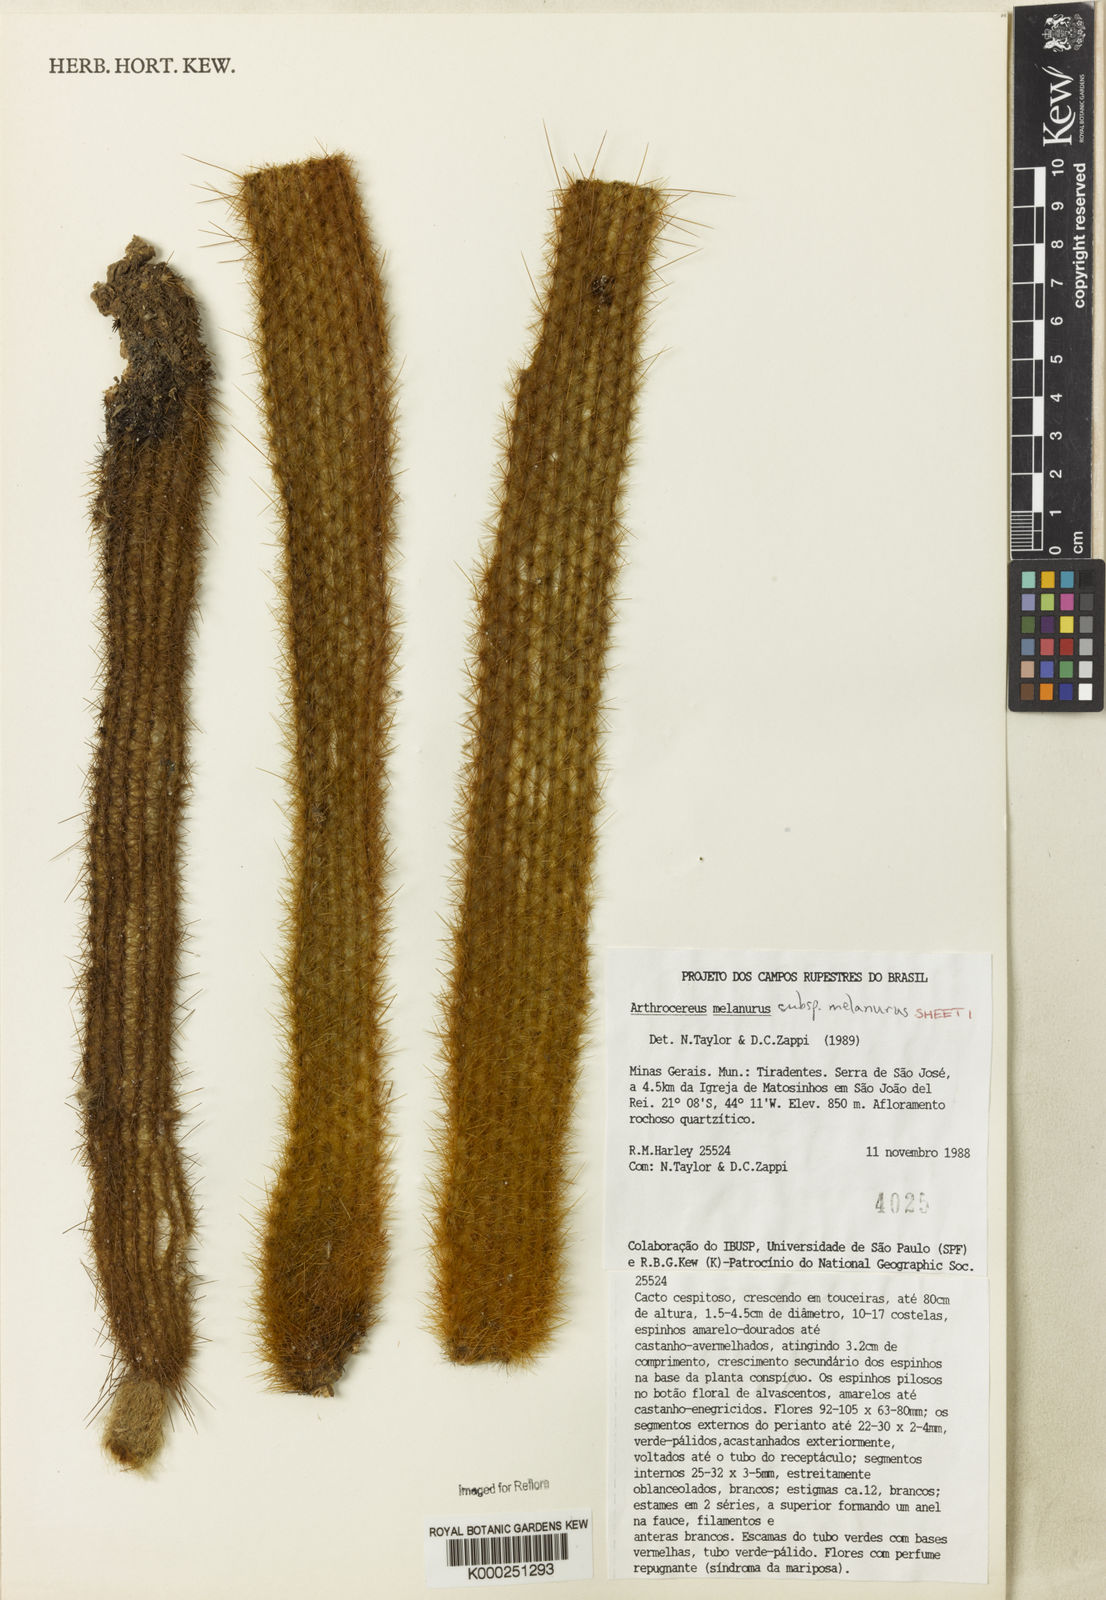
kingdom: Plantae
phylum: Tracheophyta
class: Magnoliopsida
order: Caryophyllales
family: Cactaceae
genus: Arthrocereus
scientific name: Arthrocereus
